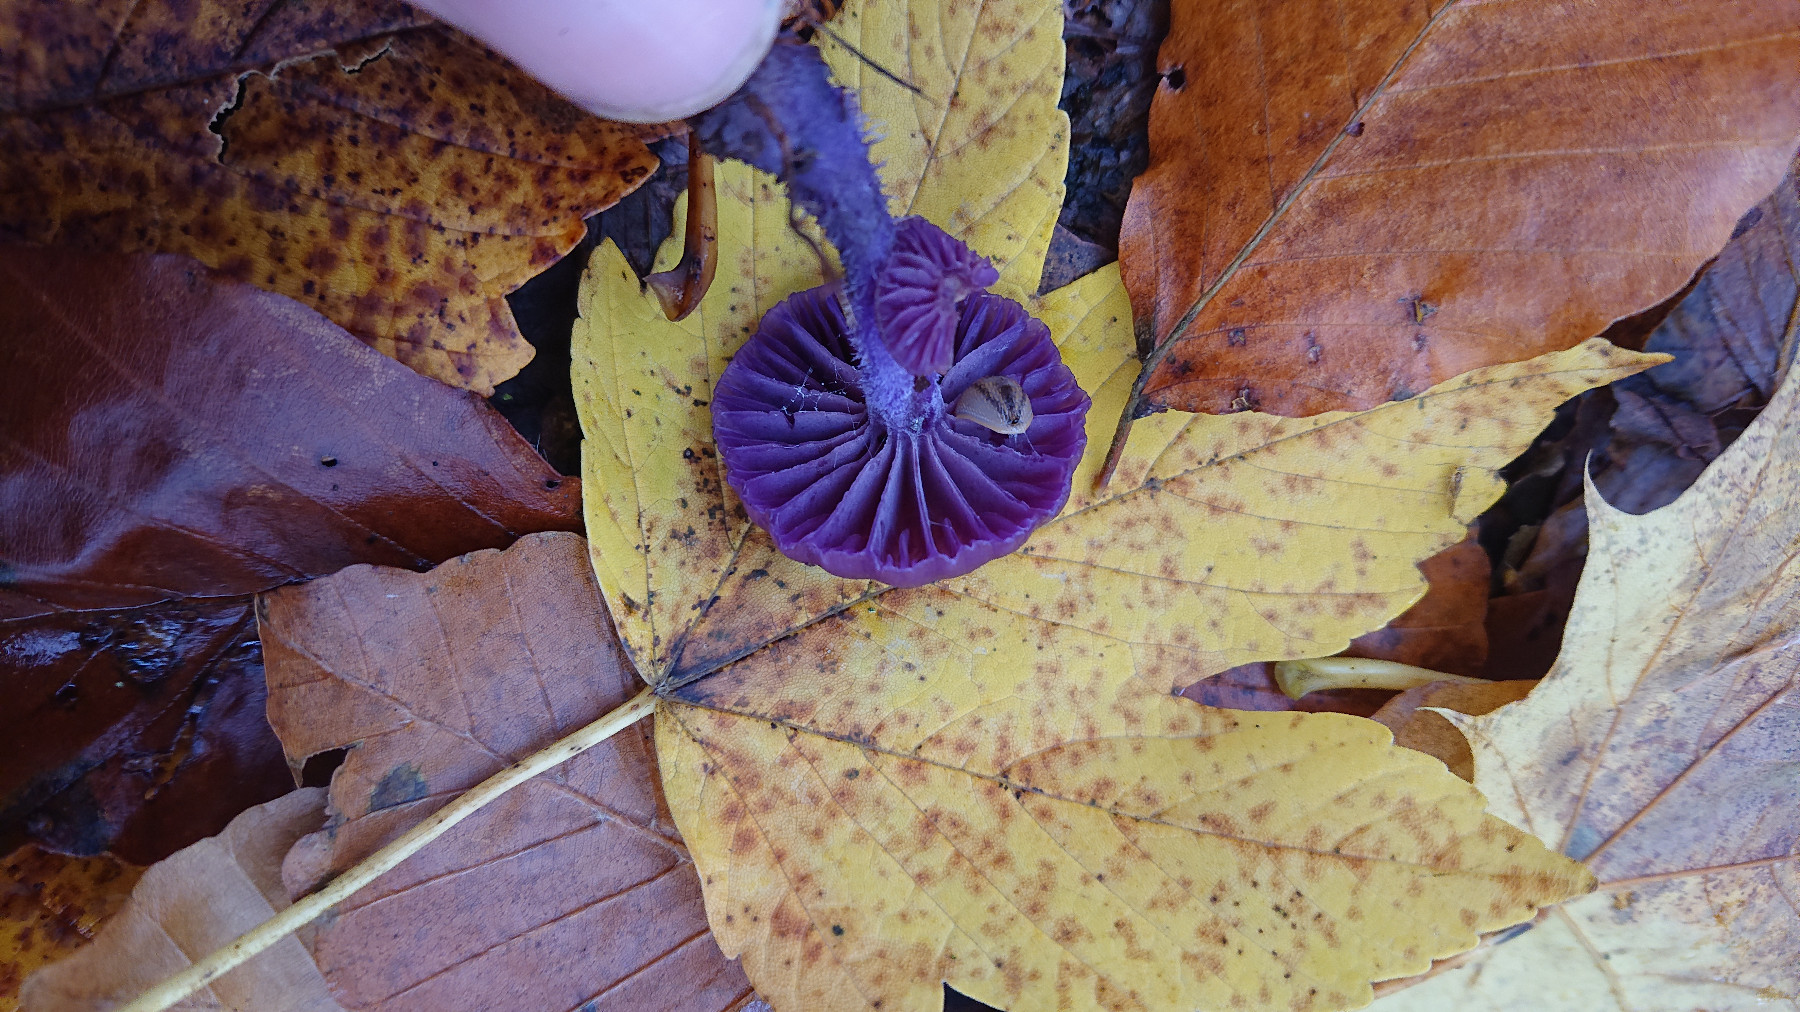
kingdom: Fungi
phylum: Basidiomycota
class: Agaricomycetes
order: Agaricales
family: Hydnangiaceae
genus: Laccaria
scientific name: Laccaria amethystina
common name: violet ametysthat
